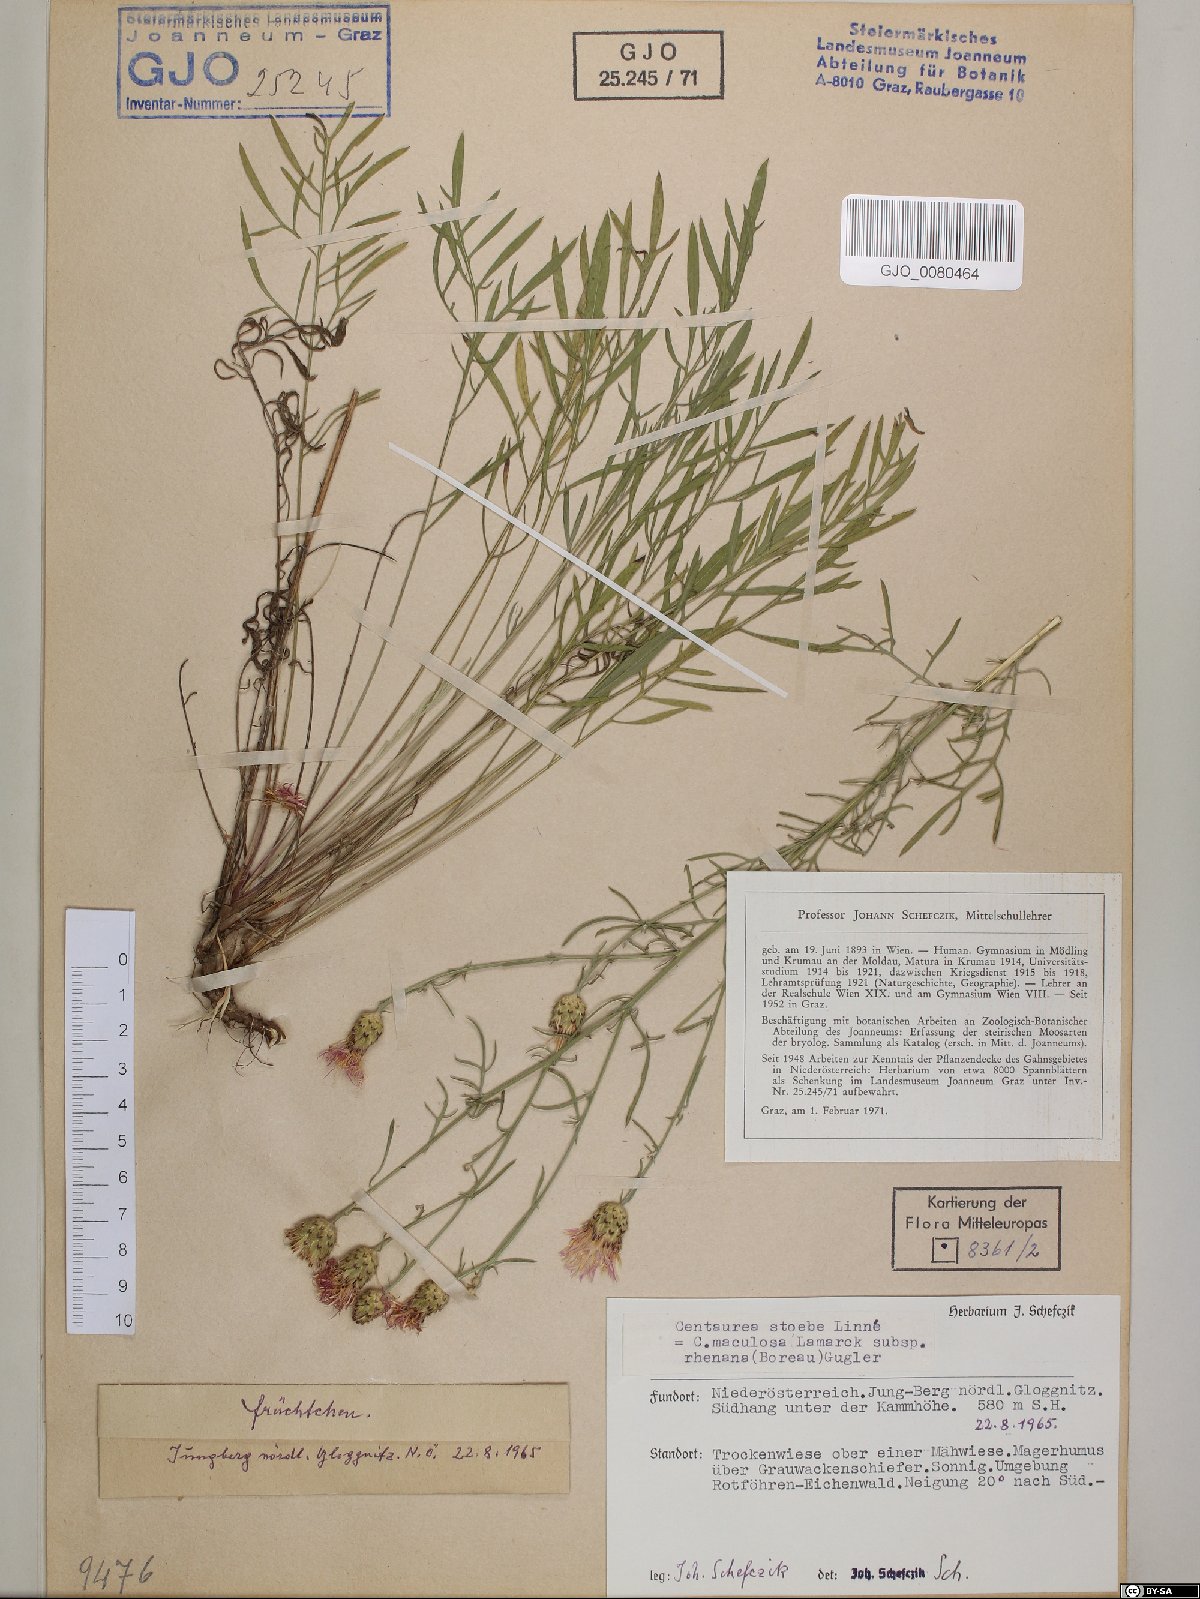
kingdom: Plantae
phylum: Tracheophyta
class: Magnoliopsida
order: Asterales
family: Asteraceae
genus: Centaurea
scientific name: Centaurea stoebe
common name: Spotted knapweed
